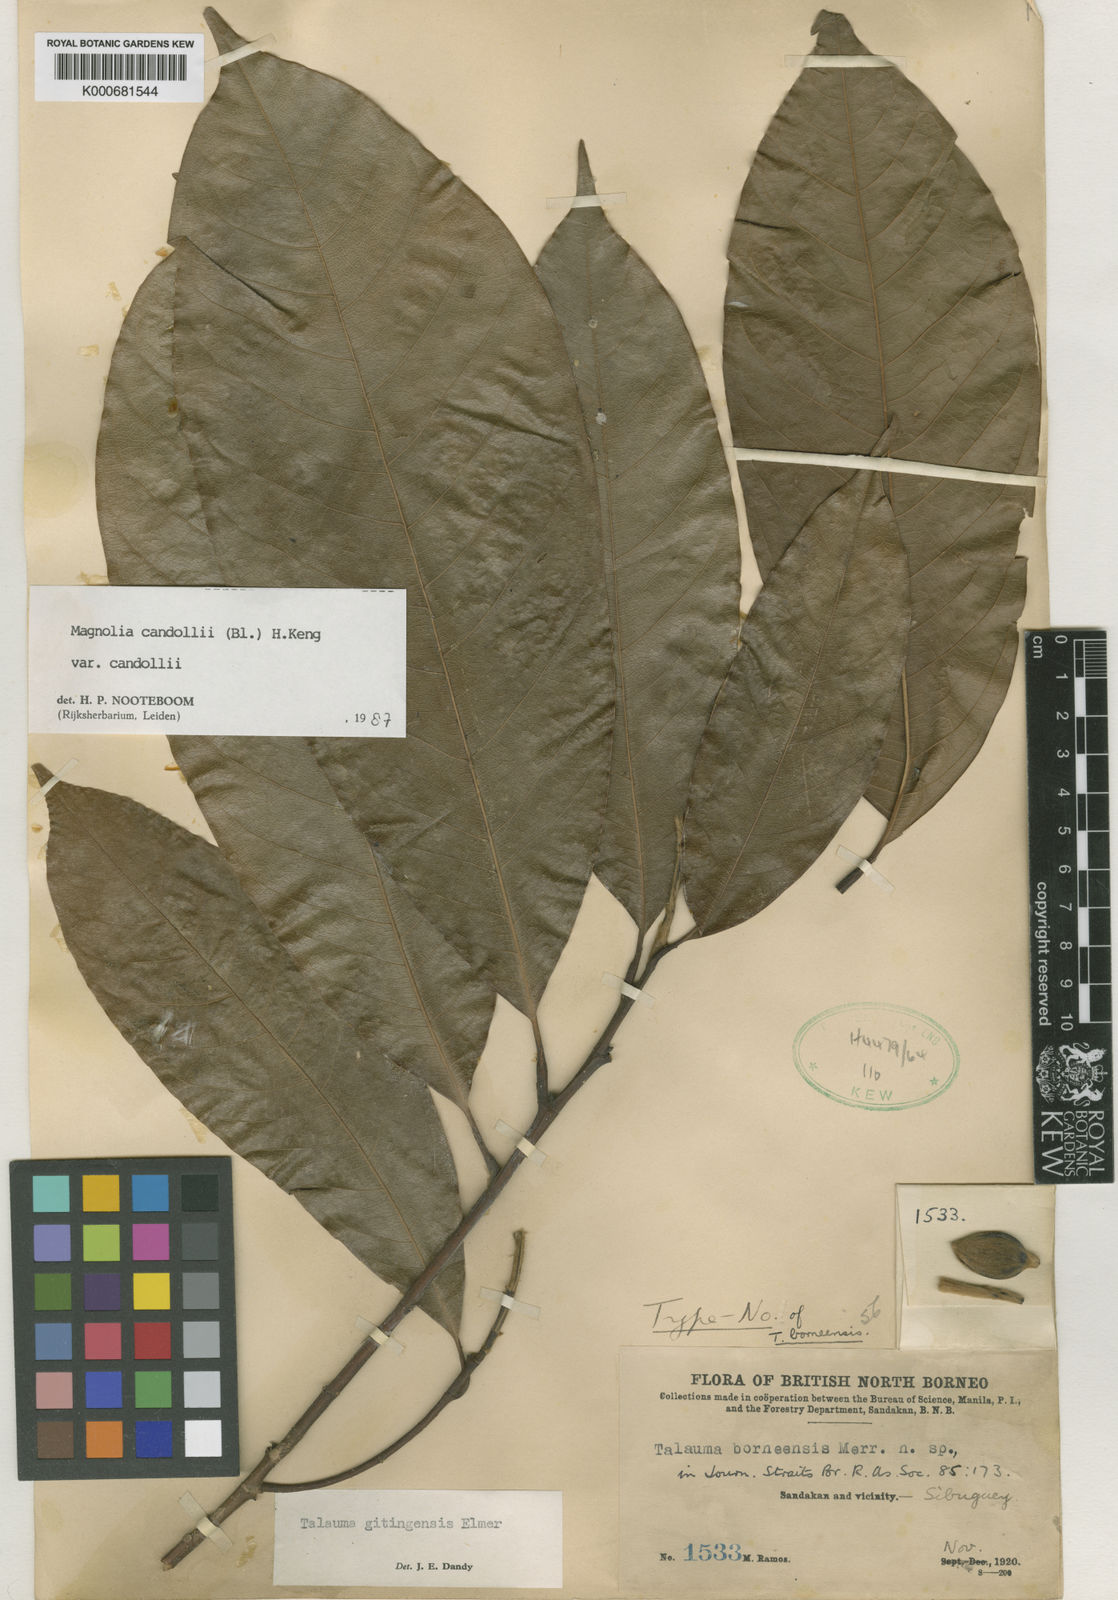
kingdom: Plantae
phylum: Tracheophyta
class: Magnoliopsida
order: Magnoliales
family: Magnoliaceae
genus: Magnolia
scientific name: Magnolia liliifera
